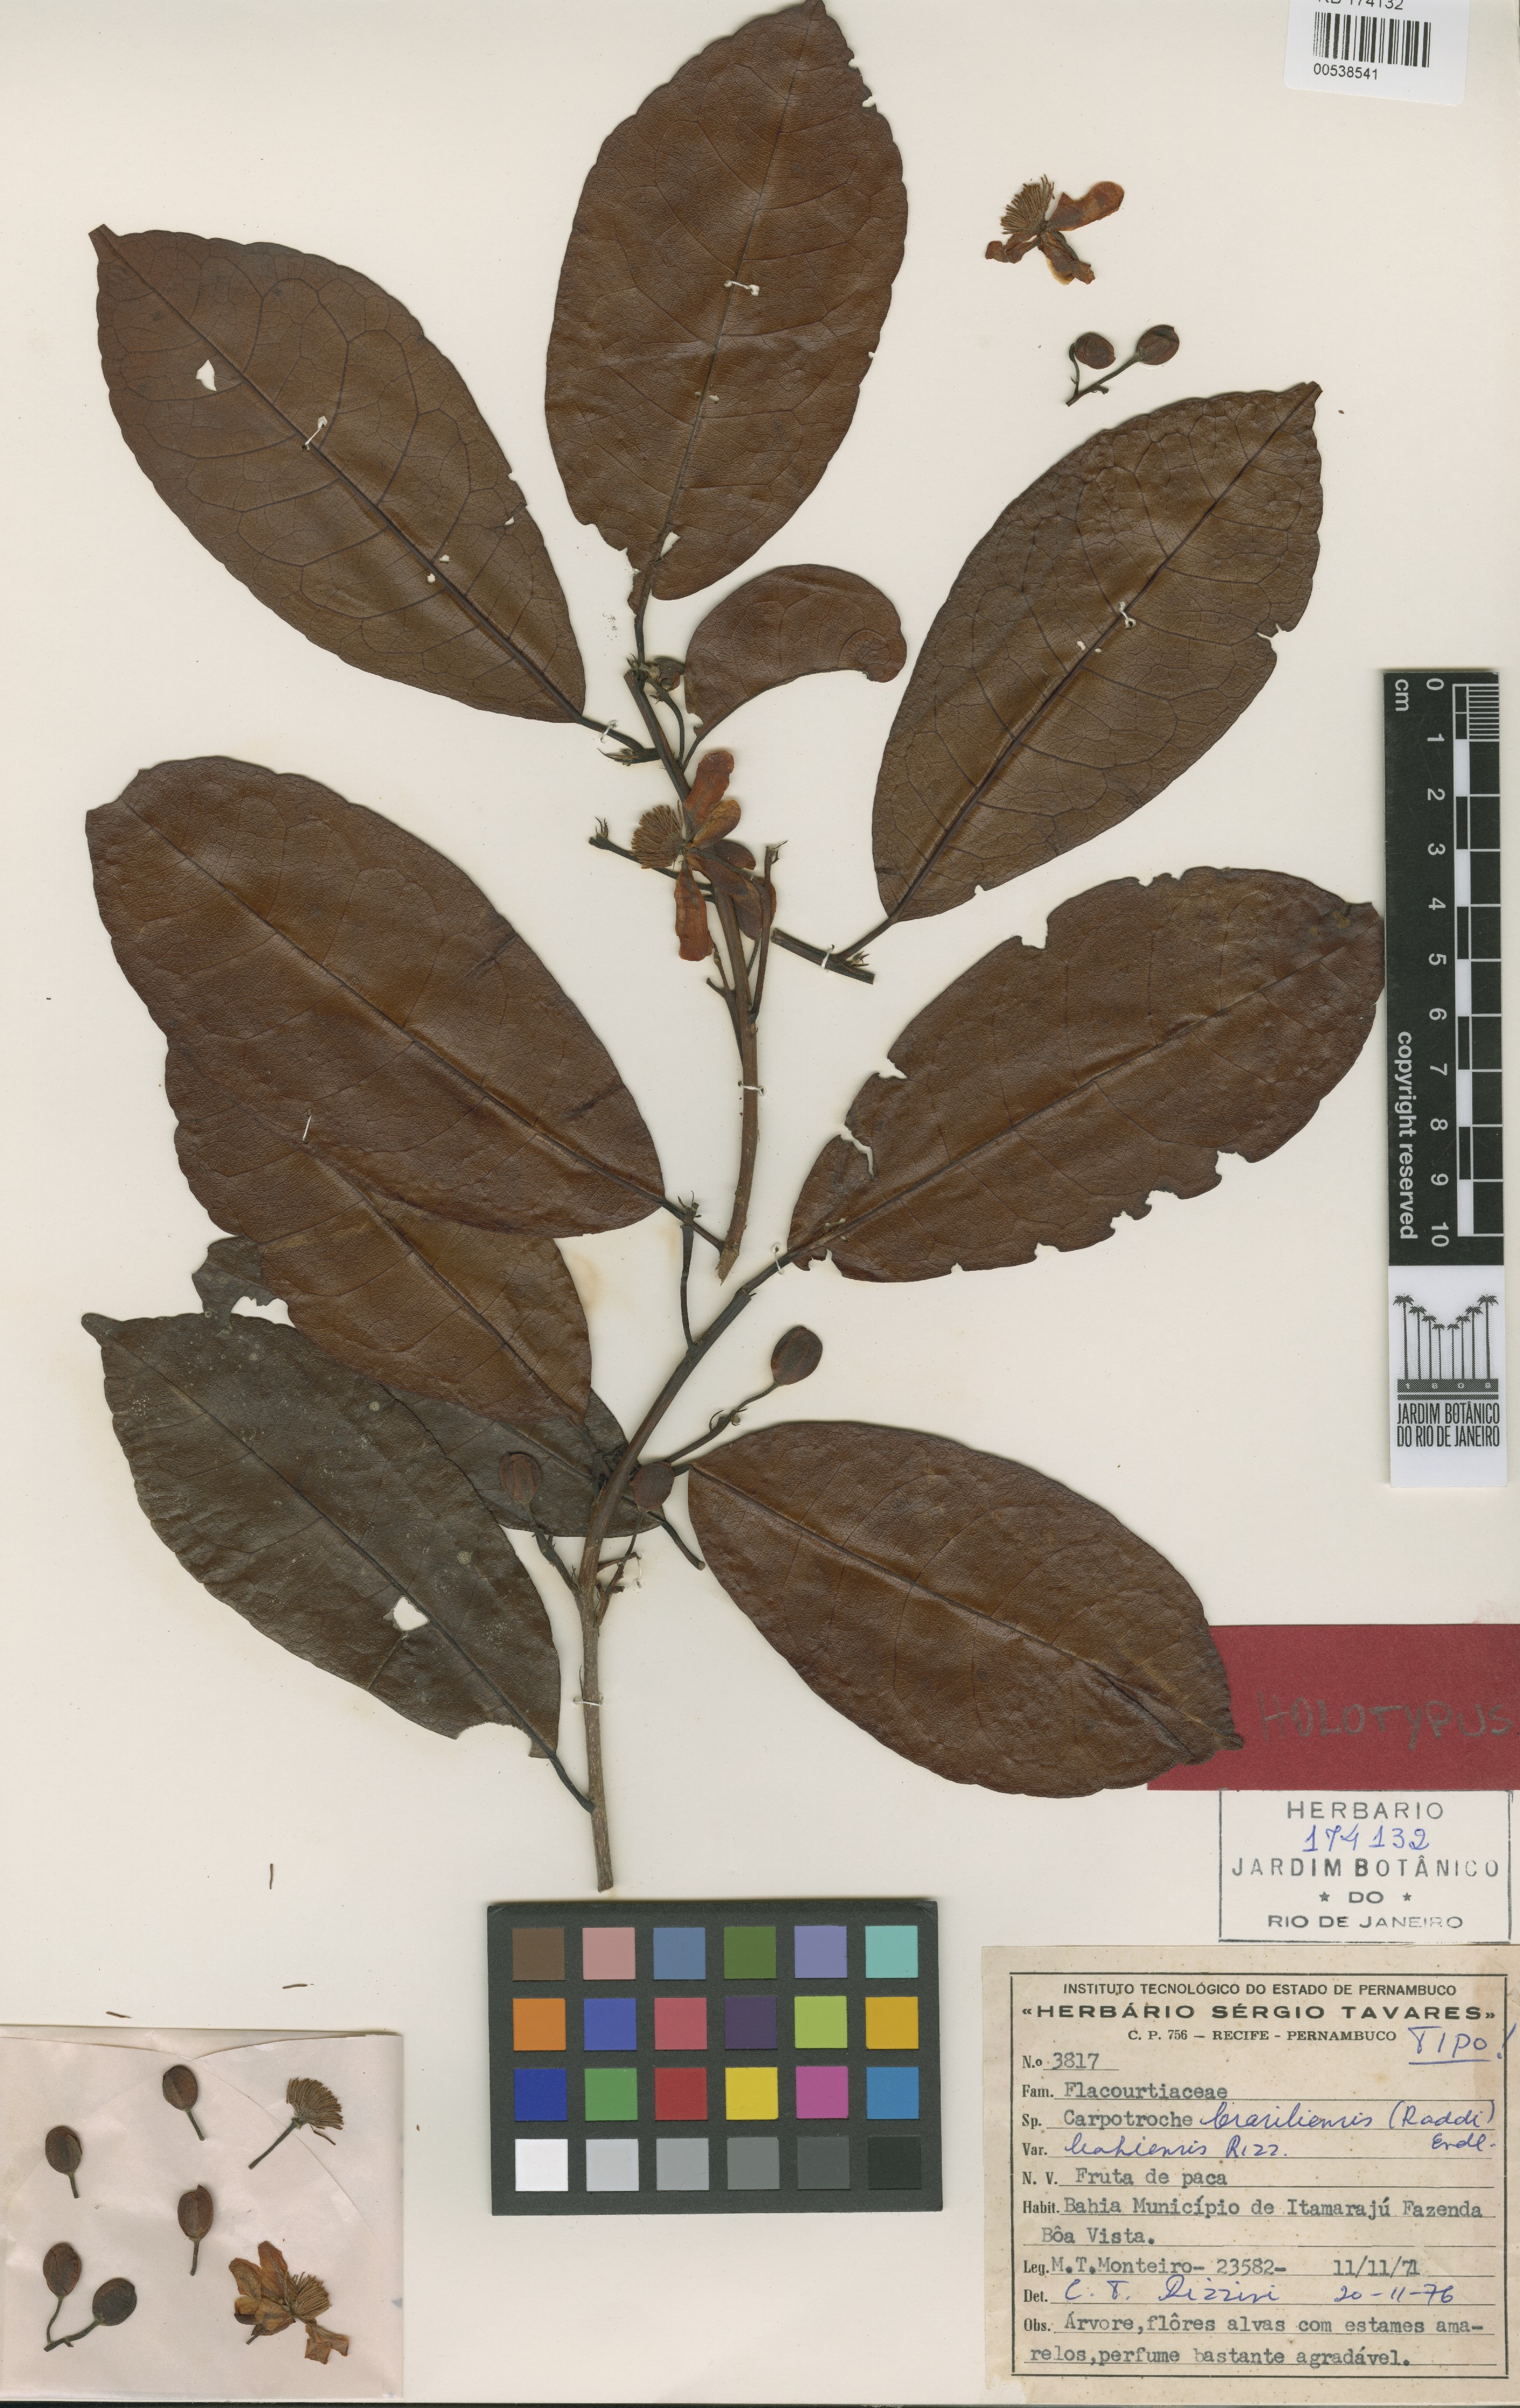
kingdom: Plantae
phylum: Tracheophyta
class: Magnoliopsida
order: Malpighiales
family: Achariaceae
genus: Carpotroche
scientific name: Carpotroche brasiliensis
